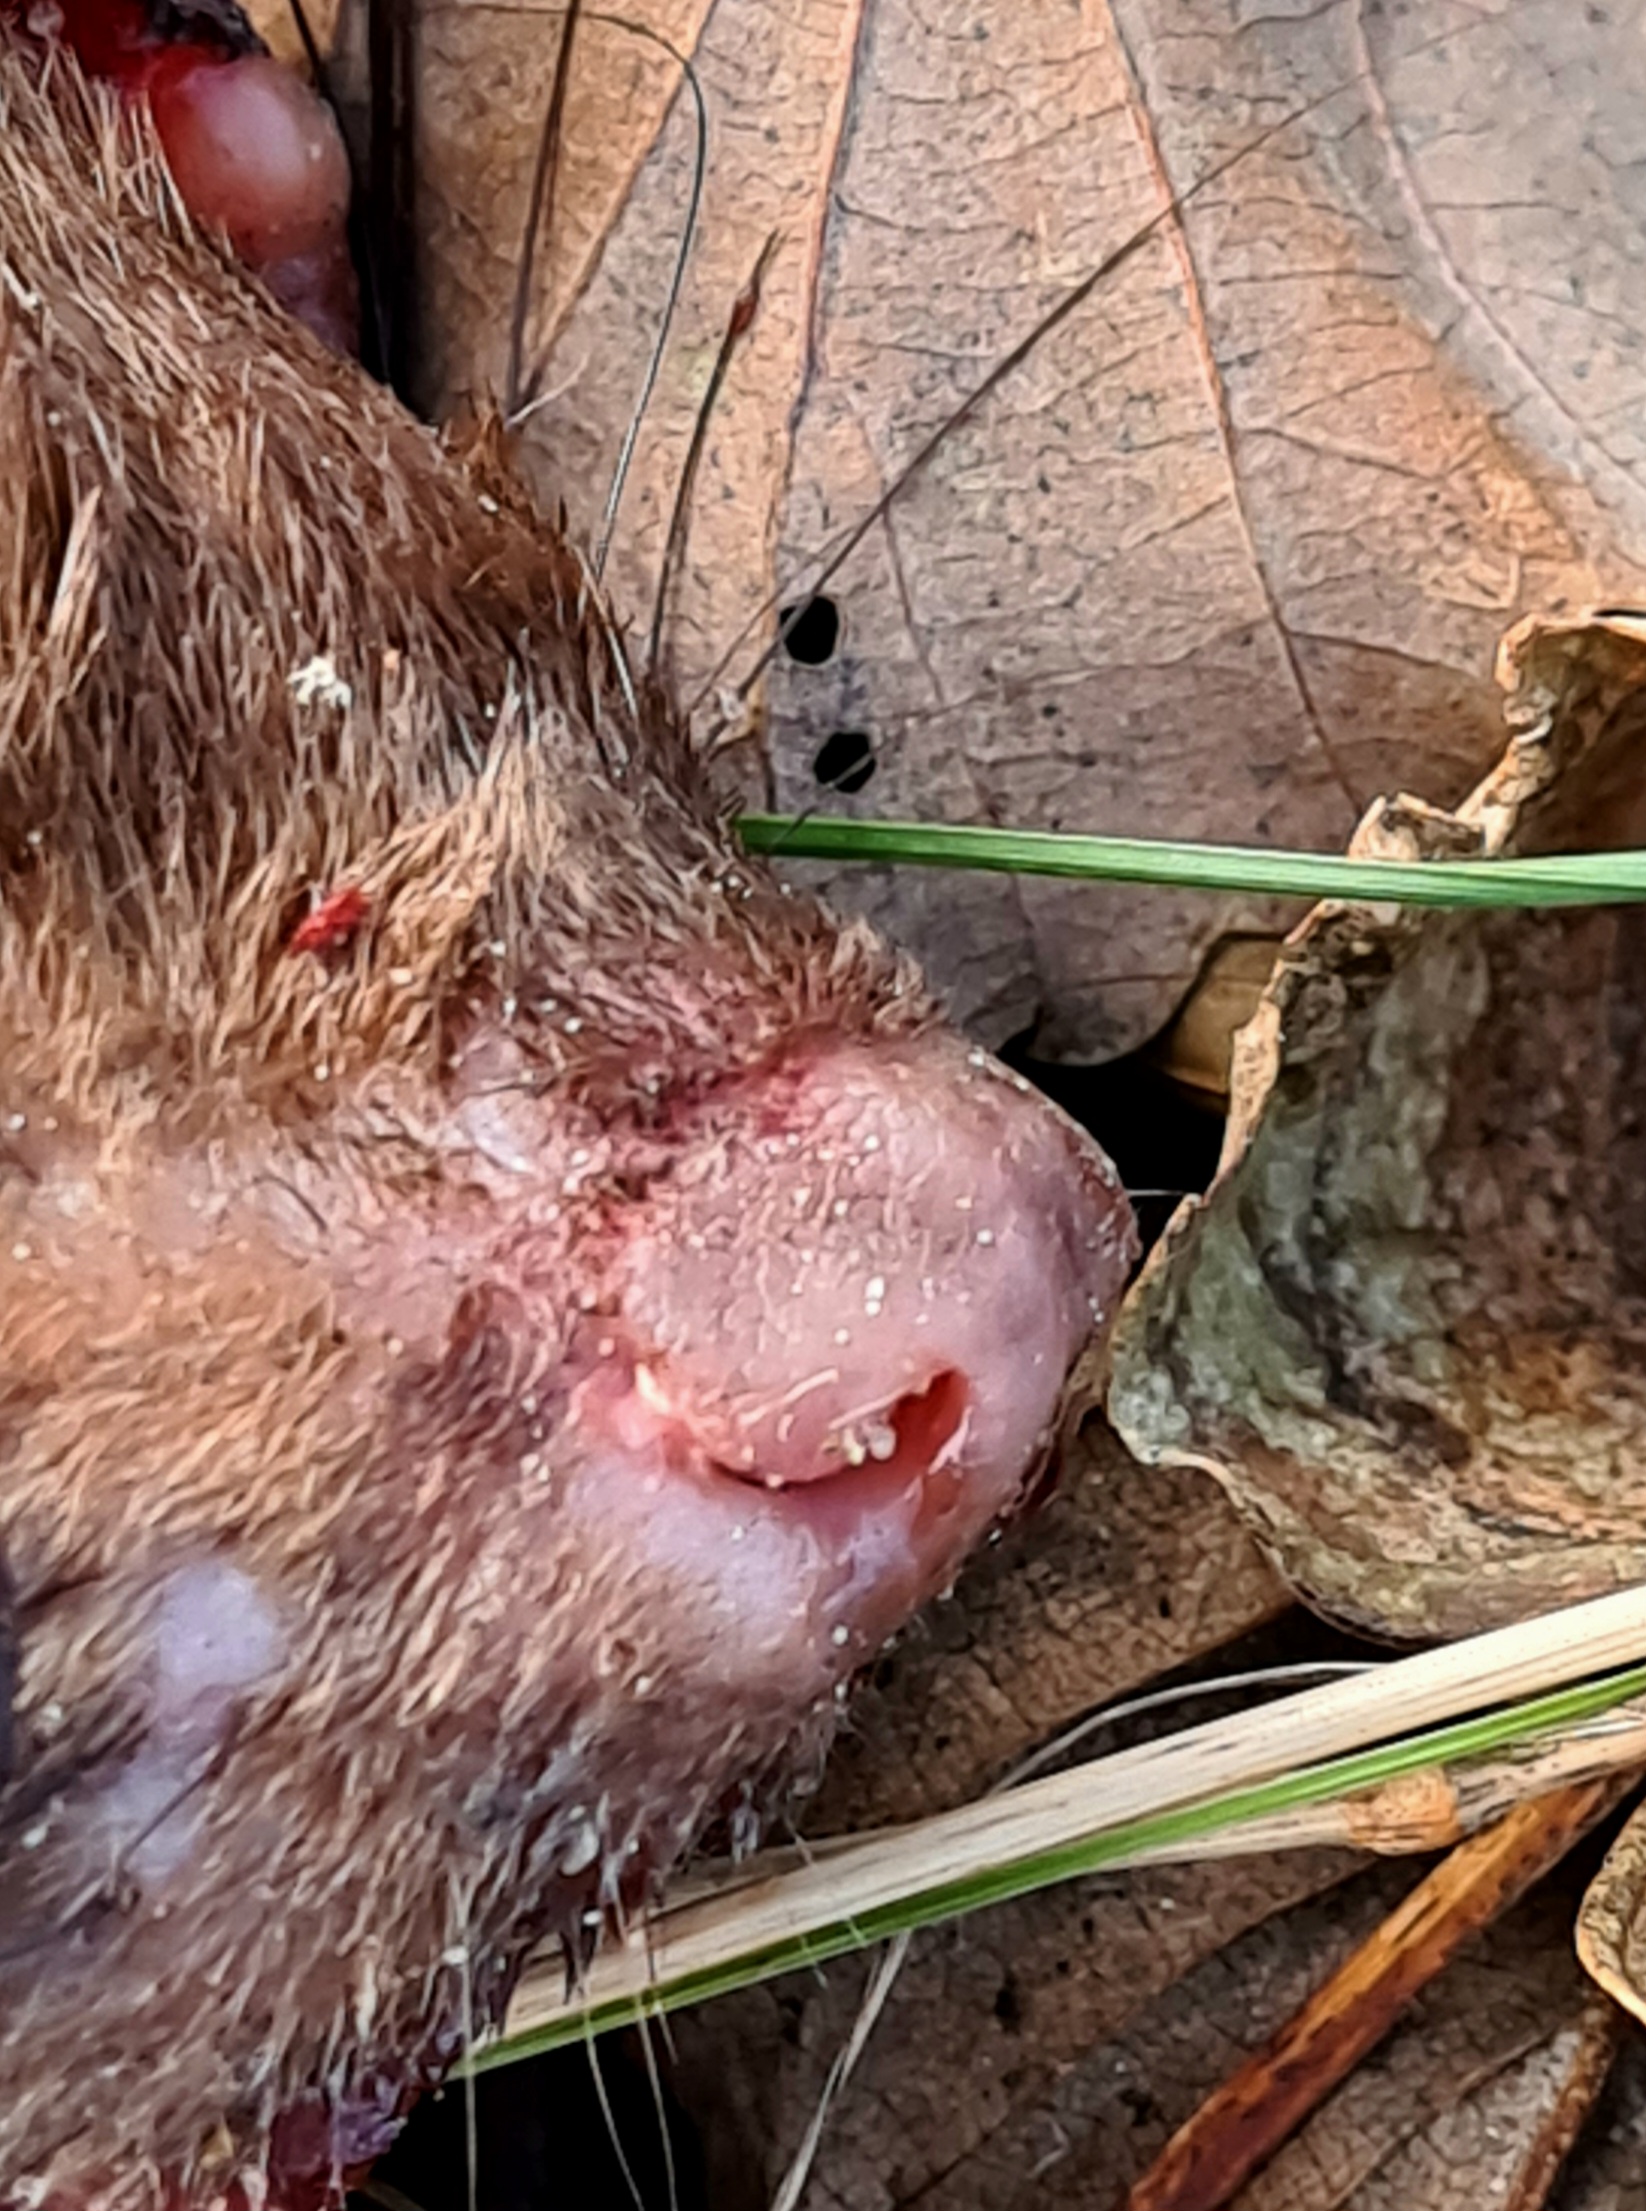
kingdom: Animalia
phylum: Chordata
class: Mammalia
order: Carnivora
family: Mustelidae
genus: Martes
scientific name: Martes foina
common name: Husmår
